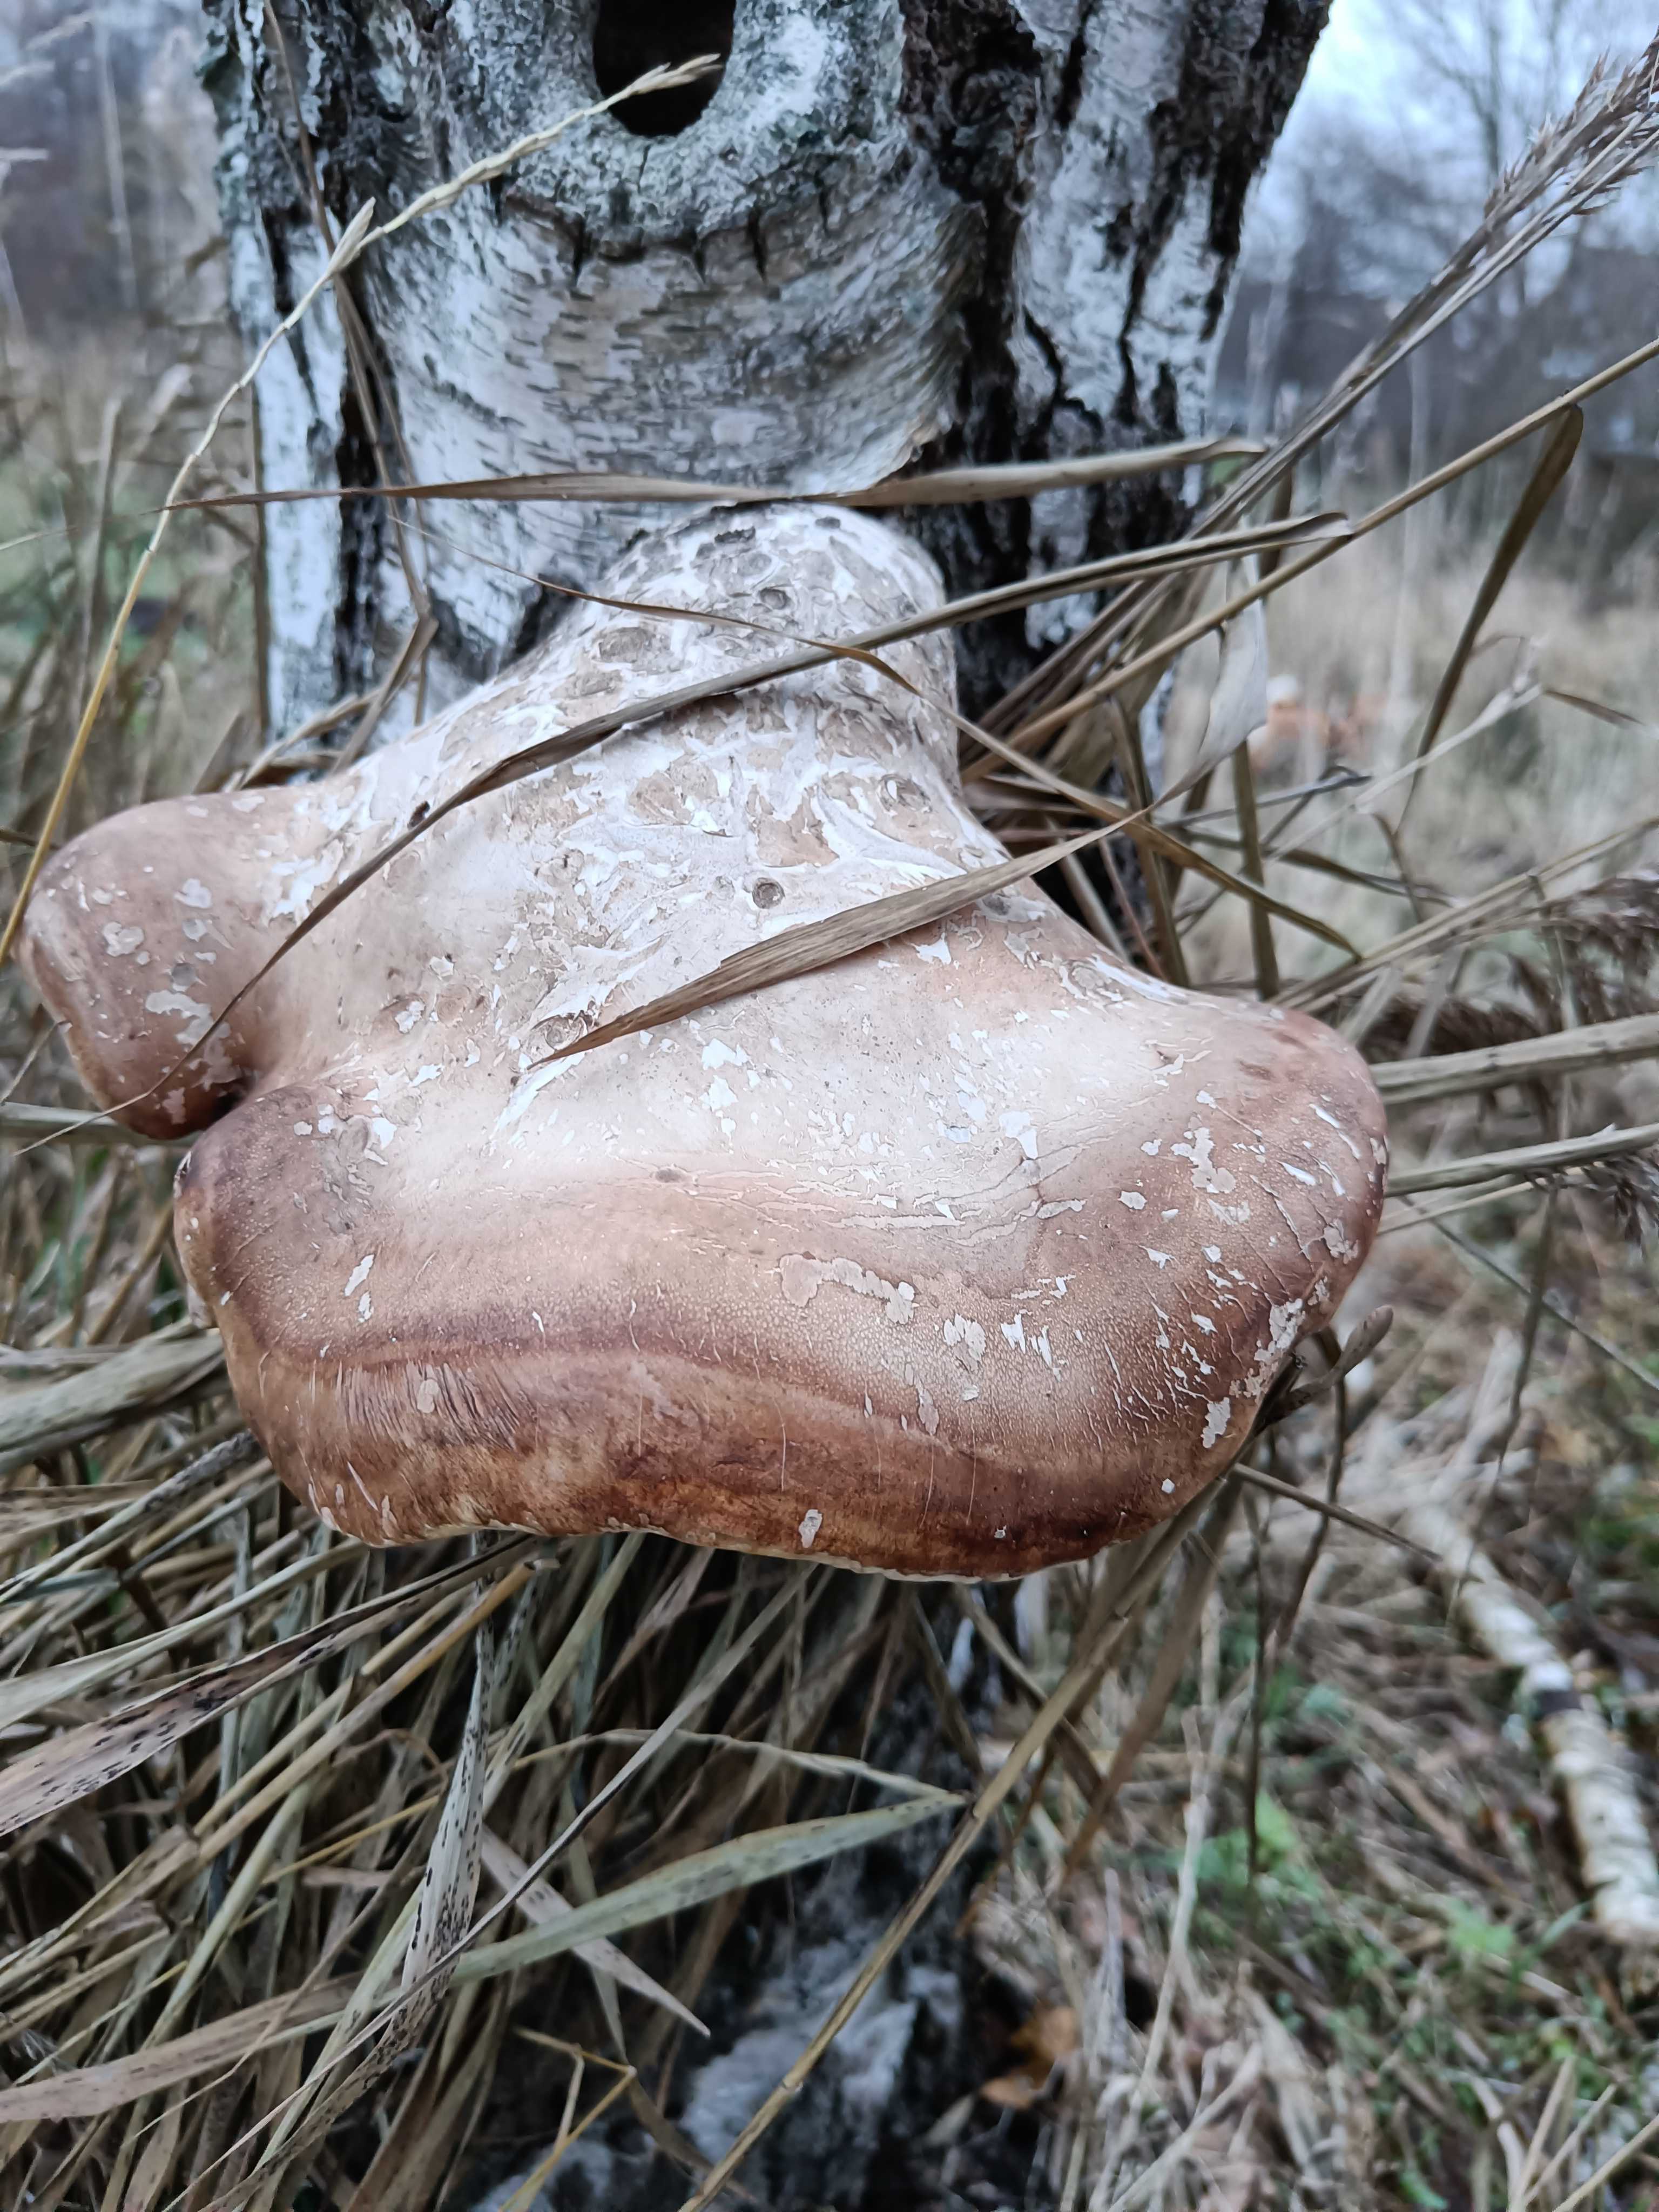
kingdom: Fungi
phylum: Basidiomycota
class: Agaricomycetes
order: Polyporales
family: Fomitopsidaceae
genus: Fomitopsis
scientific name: Fomitopsis betulina
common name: birkeporesvamp
